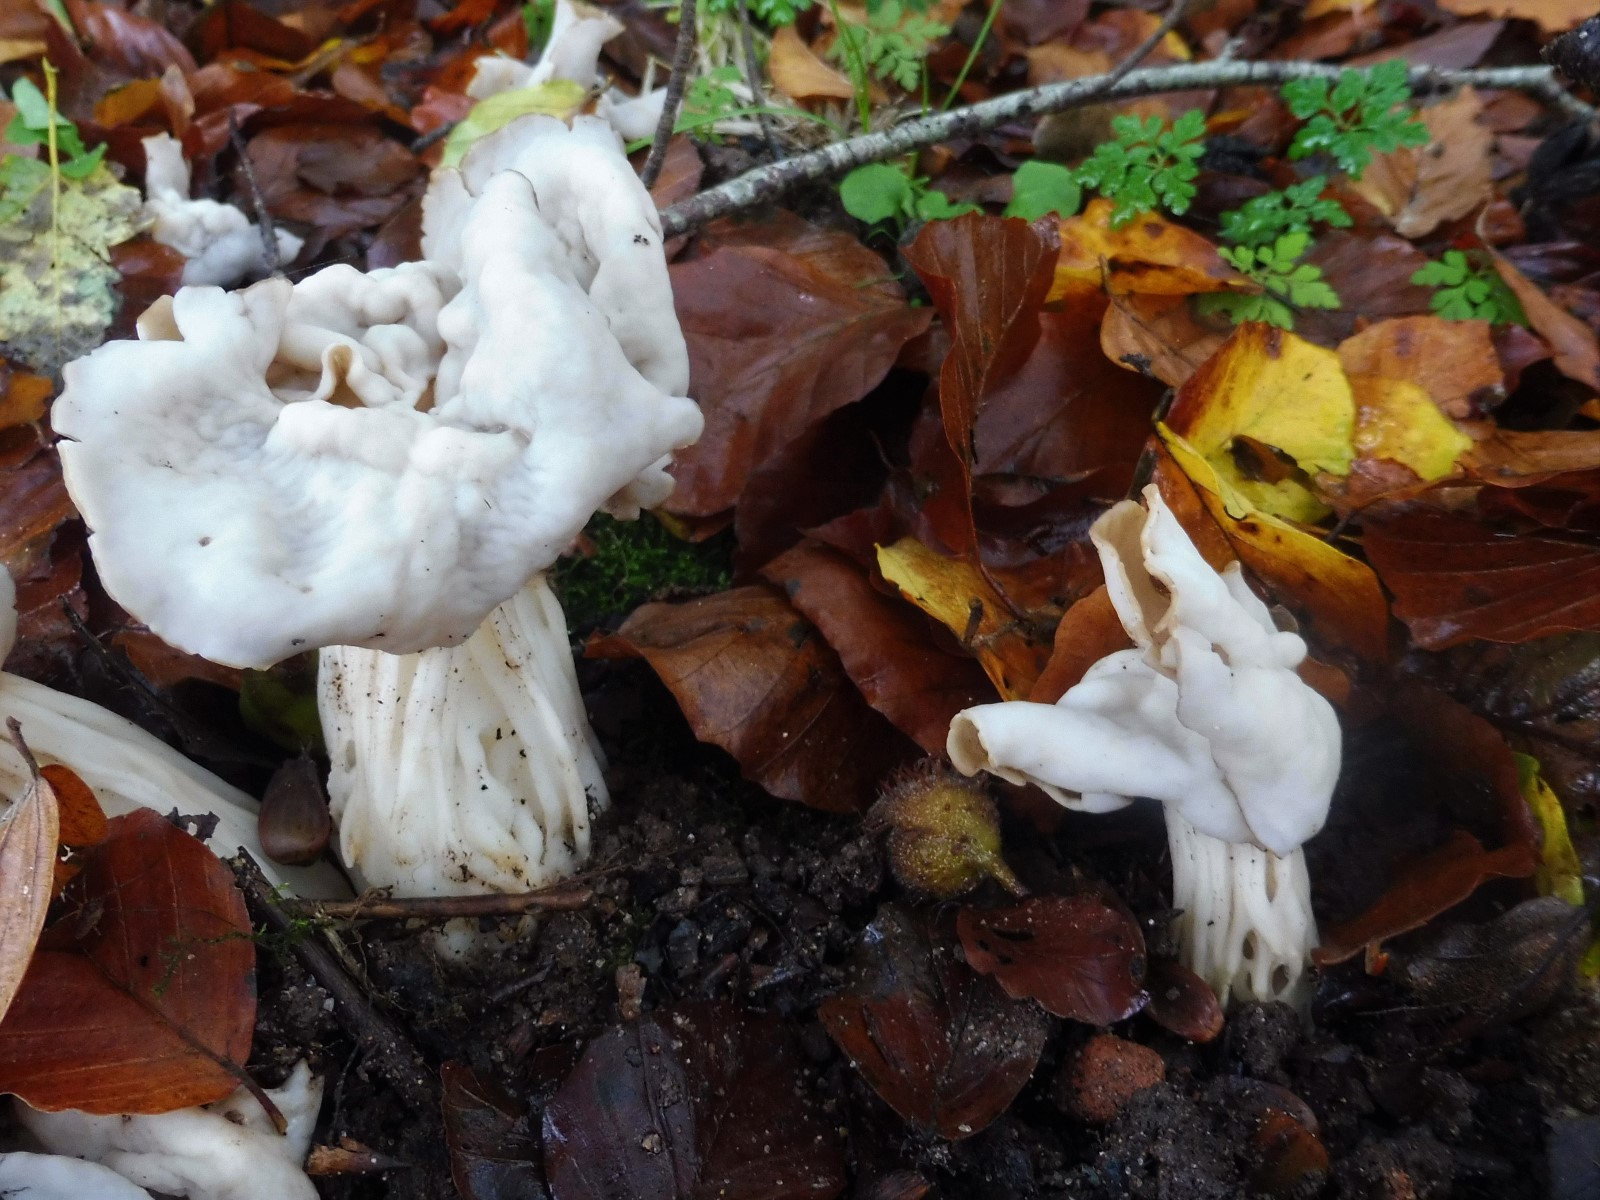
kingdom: Fungi
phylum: Ascomycota
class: Pezizomycetes
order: Pezizales
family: Helvellaceae
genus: Helvella
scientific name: Helvella crispa
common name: kruset foldhat
